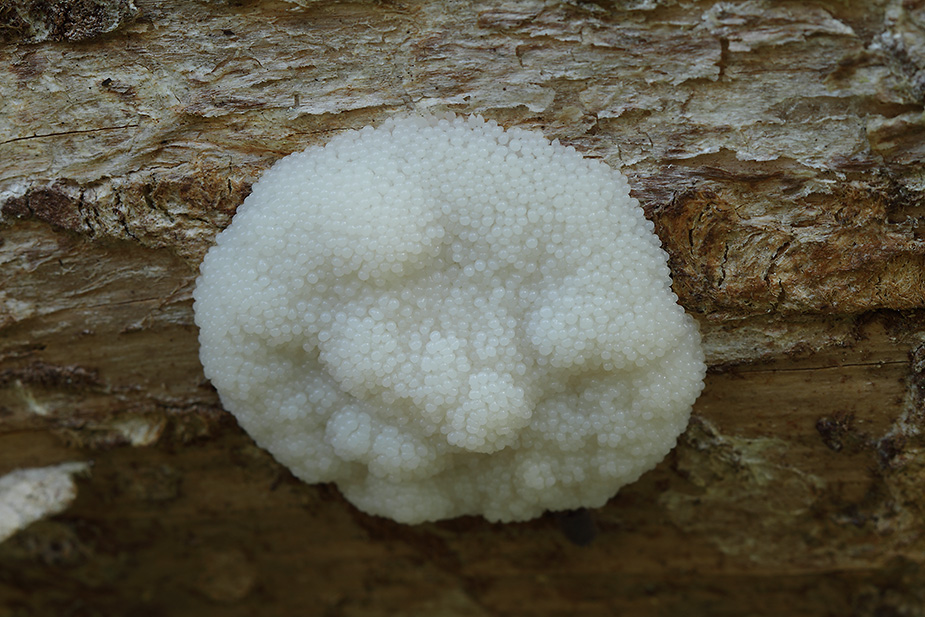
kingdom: Protozoa
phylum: Mycetozoa
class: Myxomycetes
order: Stemonitidales
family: Stemonitidaceae
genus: Symphytocarpus
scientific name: Symphytocarpus flaccidus
